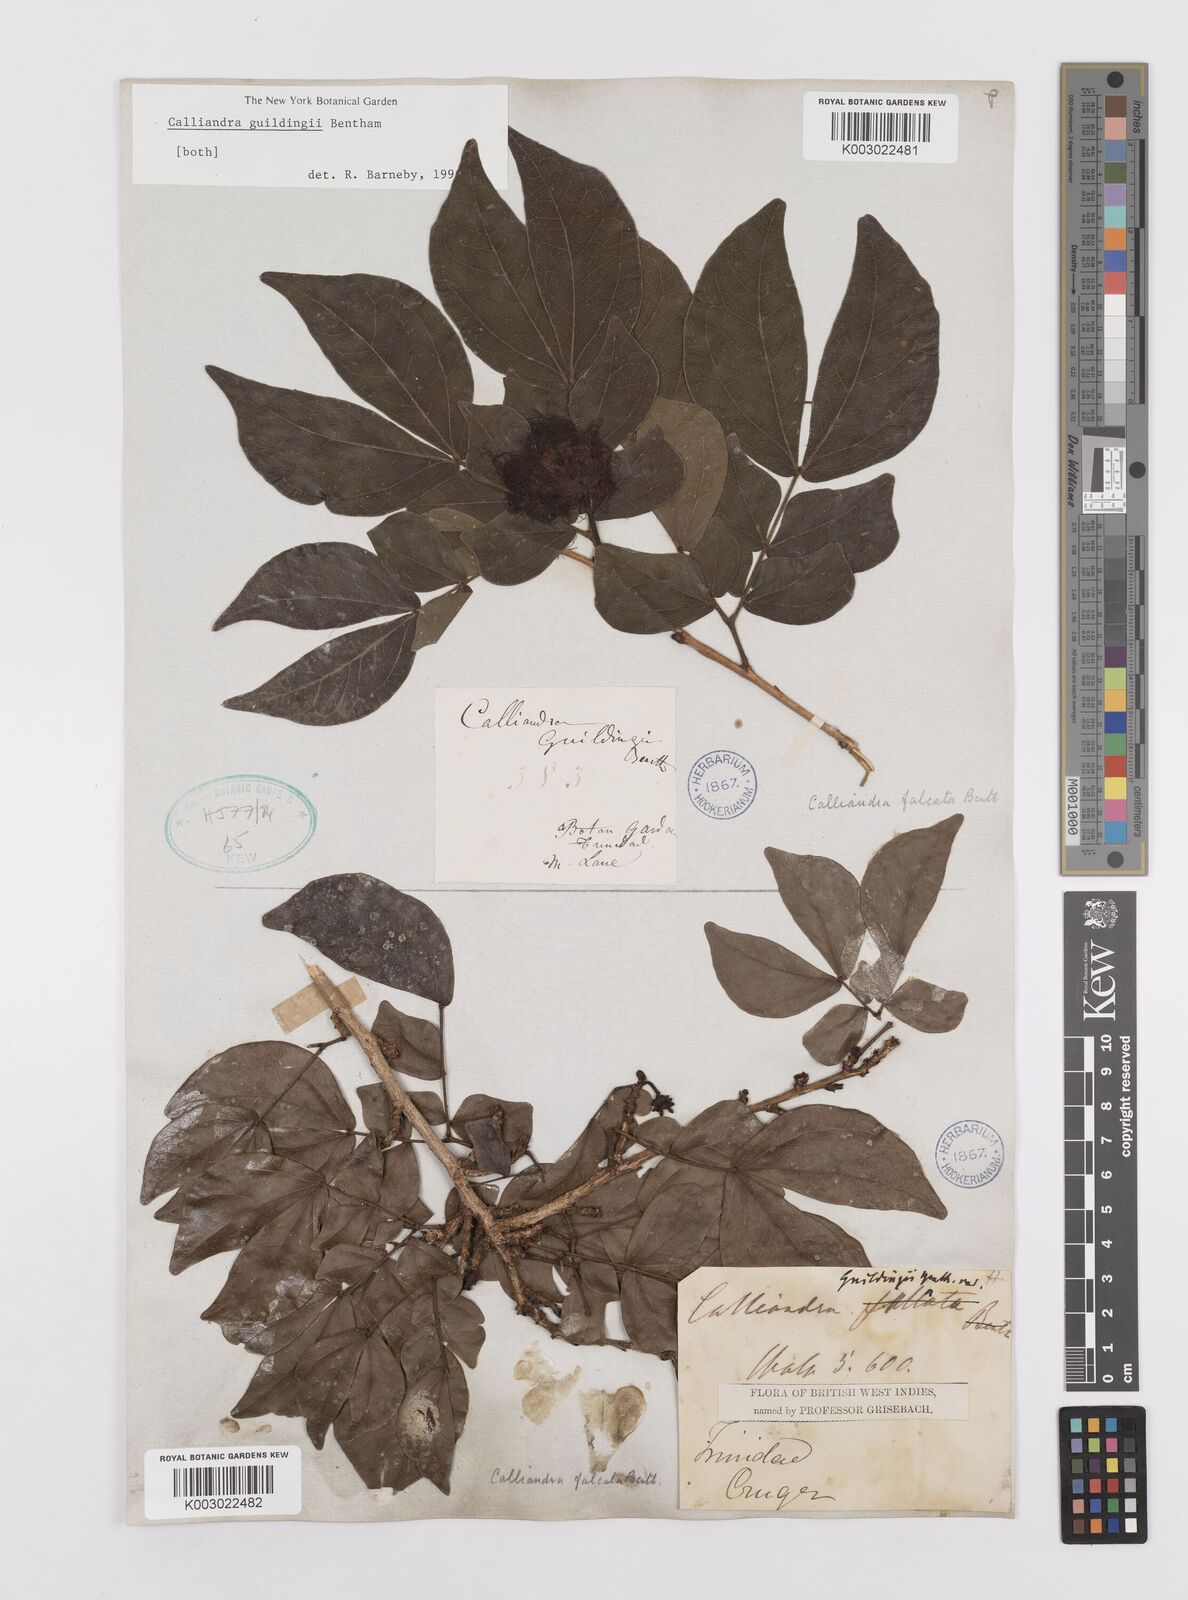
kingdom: Plantae
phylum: Tracheophyta
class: Magnoliopsida
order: Fabales
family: Fabaceae
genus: Calliandra
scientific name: Calliandra guildingii
